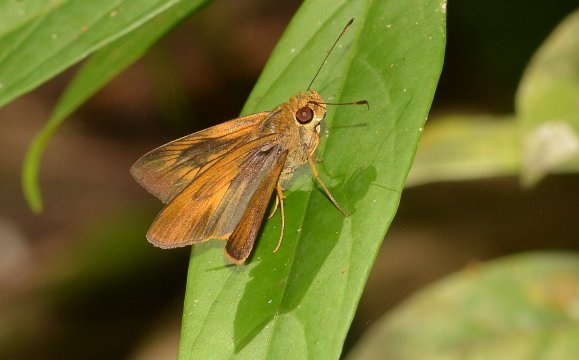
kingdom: Animalia
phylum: Arthropoda
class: Insecta
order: Lepidoptera
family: Hesperiidae
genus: Synapte
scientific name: Synapte silius
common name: Rain-forest Faceted-Skipper
